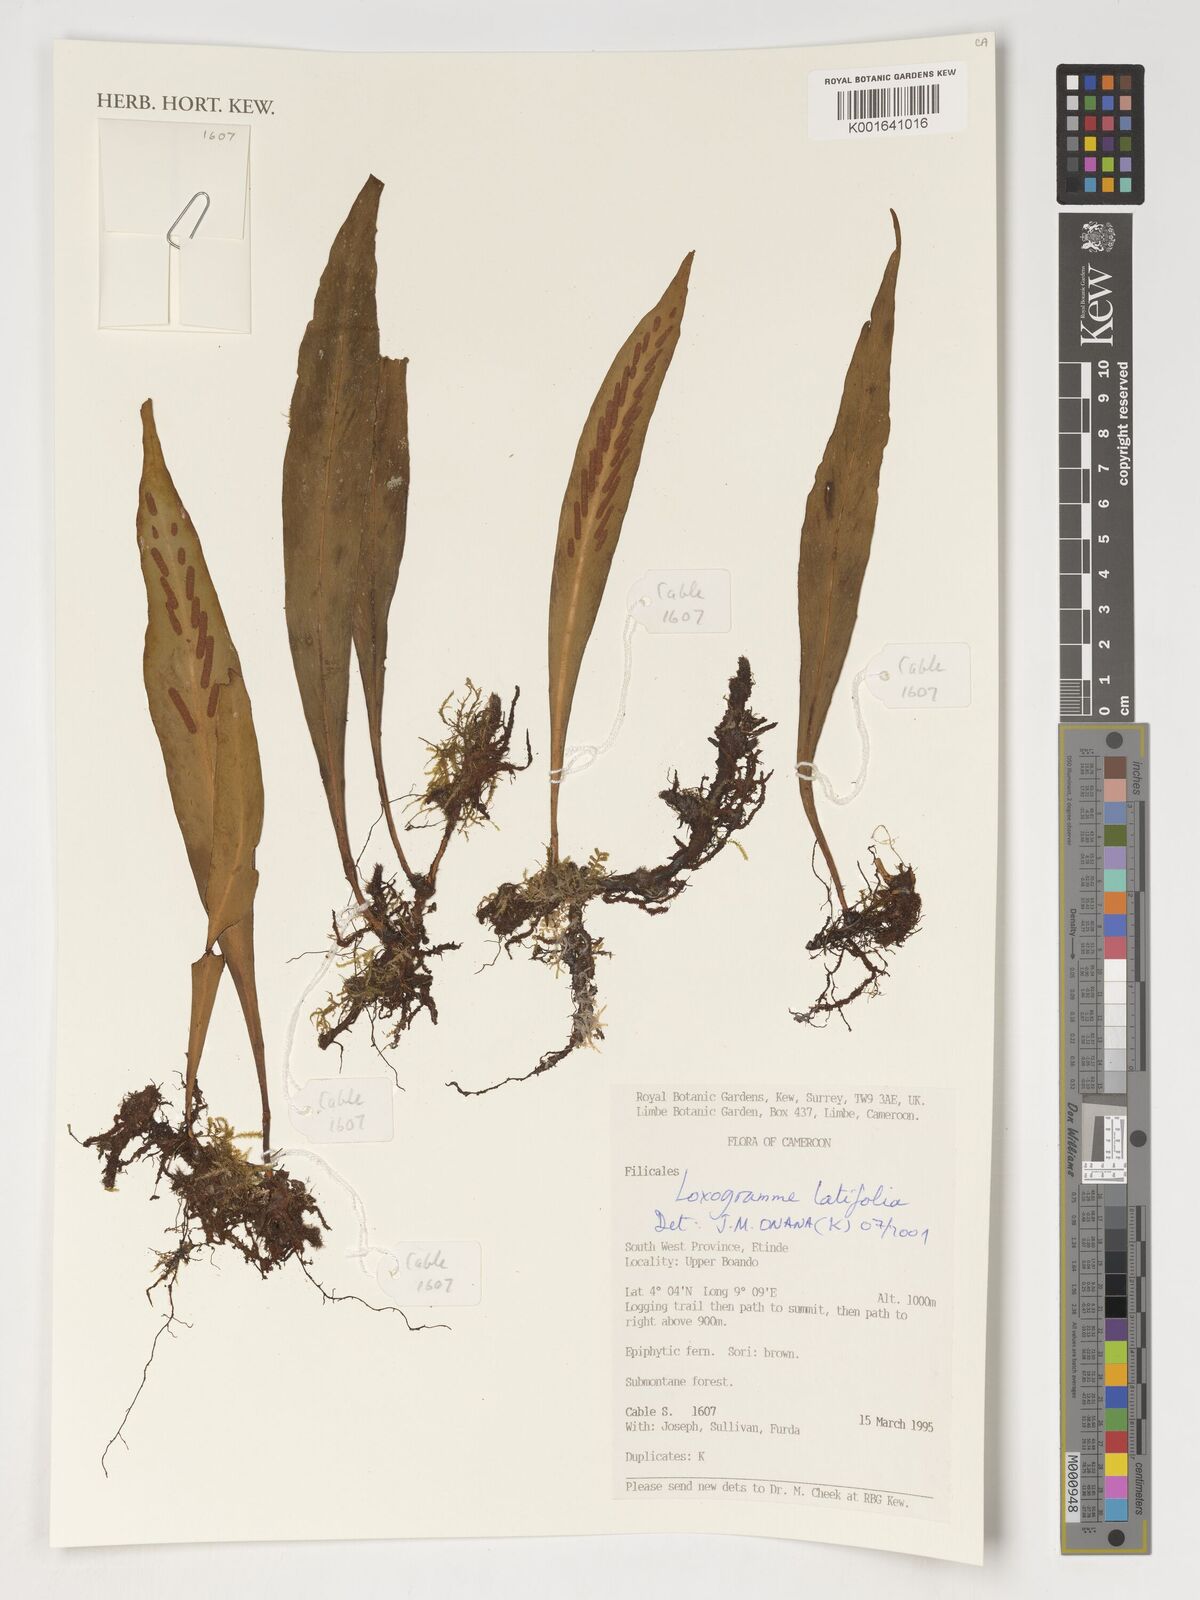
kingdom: Plantae
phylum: Tracheophyta
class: Polypodiopsida
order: Polypodiales
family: Polypodiaceae
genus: Loxogramme
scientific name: Loxogramme latifolia
